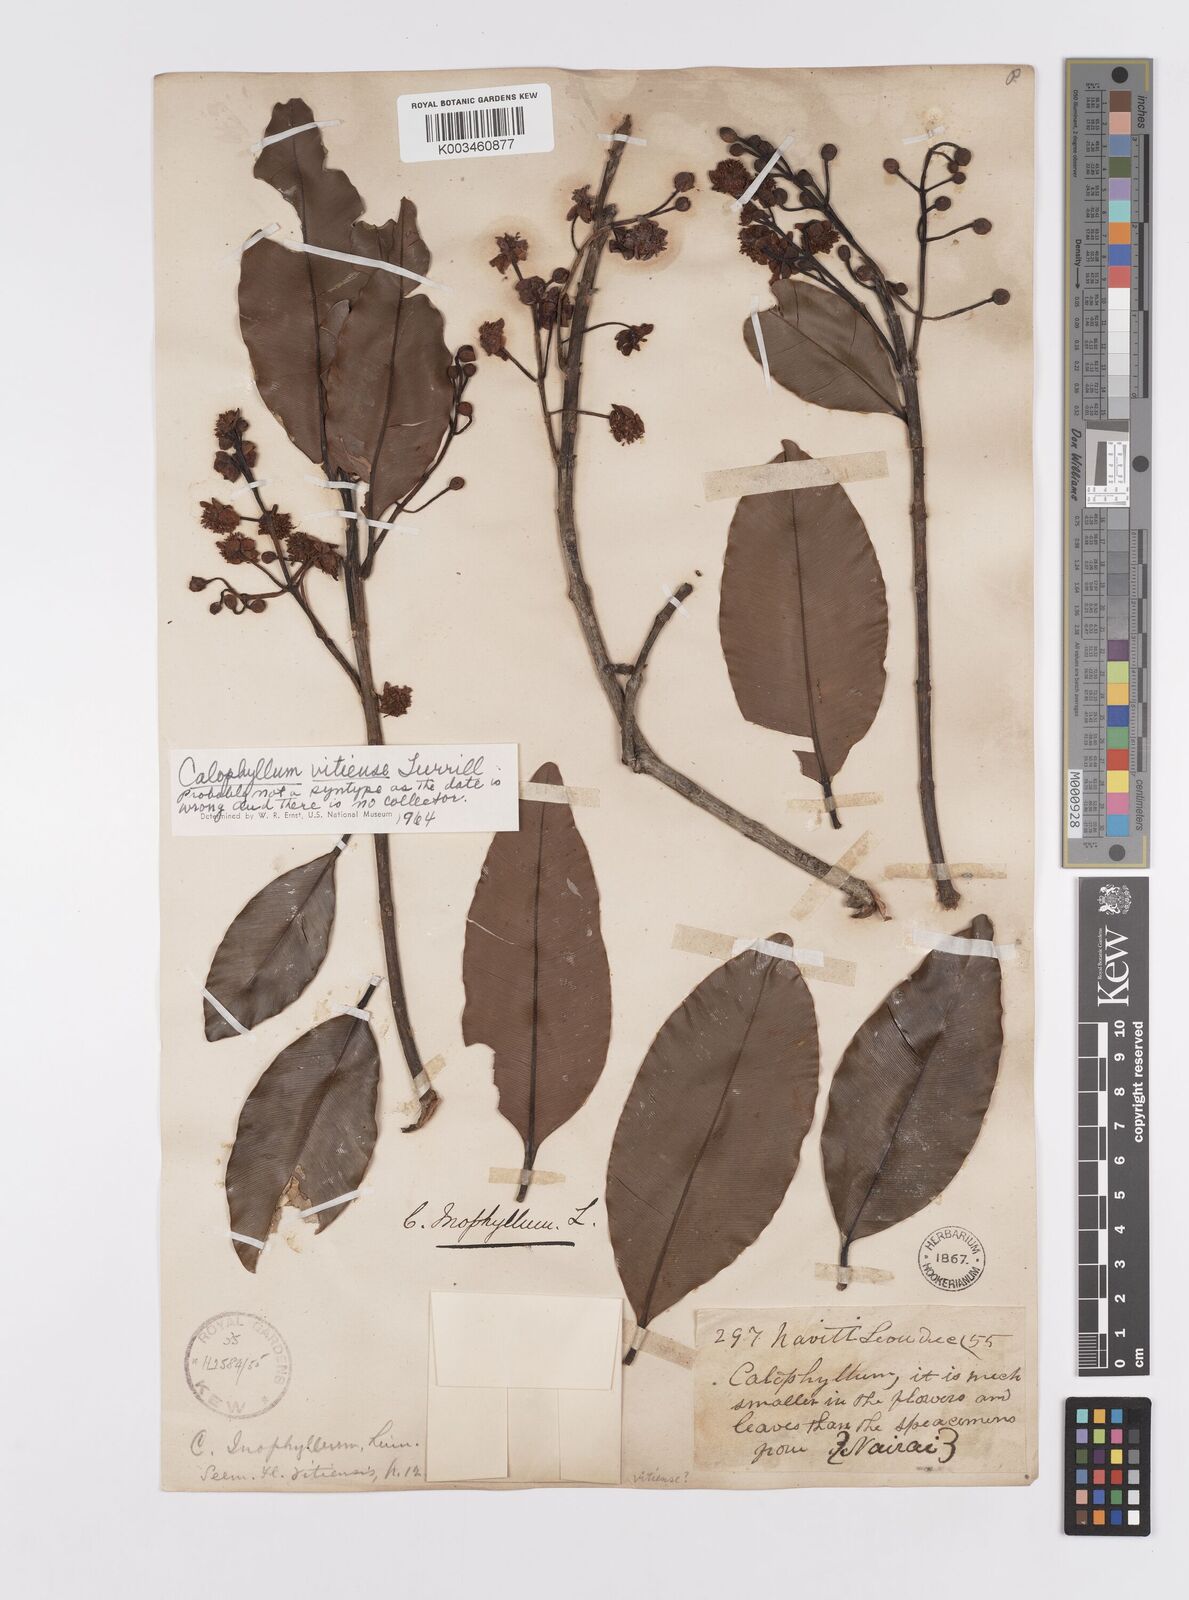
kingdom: Plantae
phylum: Tracheophyta
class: Magnoliopsida
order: Malpighiales
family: Calophyllaceae
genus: Calophyllum
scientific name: Calophyllum vitiense
